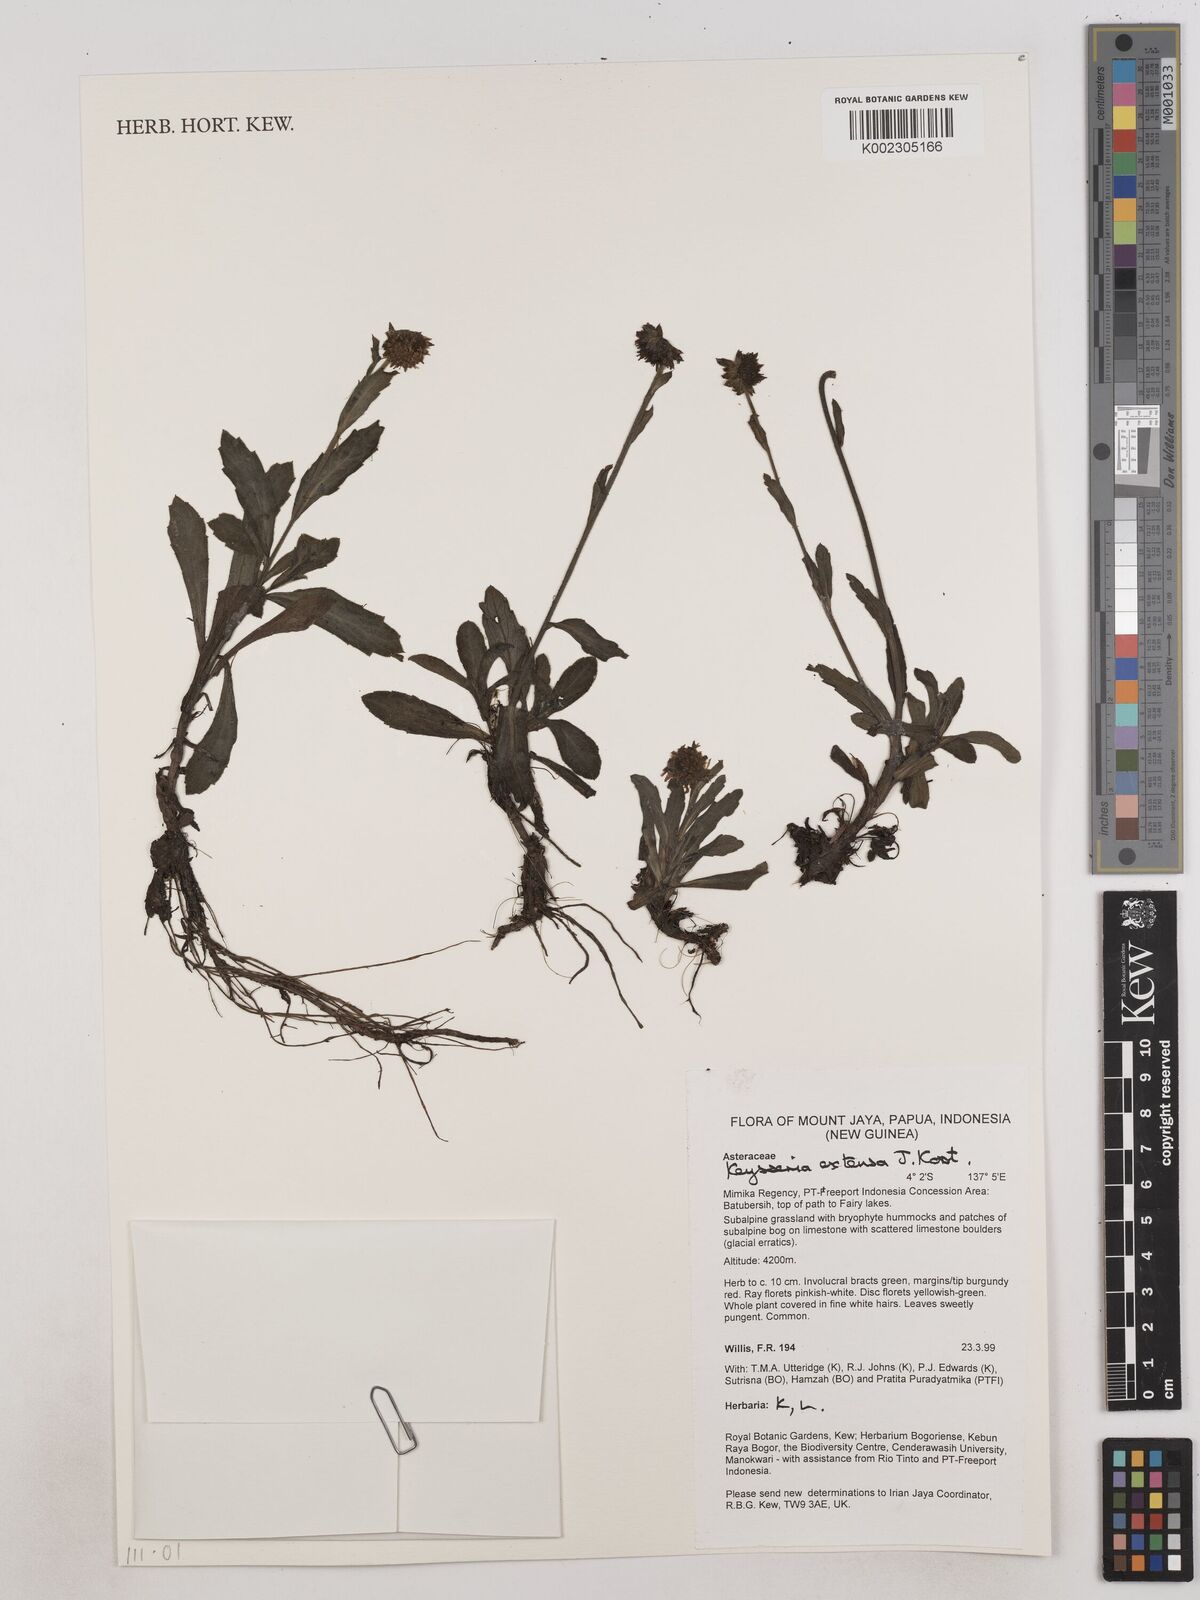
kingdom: Plantae
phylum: Tracheophyta
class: Magnoliopsida
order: Asterales
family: Asteraceae
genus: Keysseria
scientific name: Keysseria extensa
